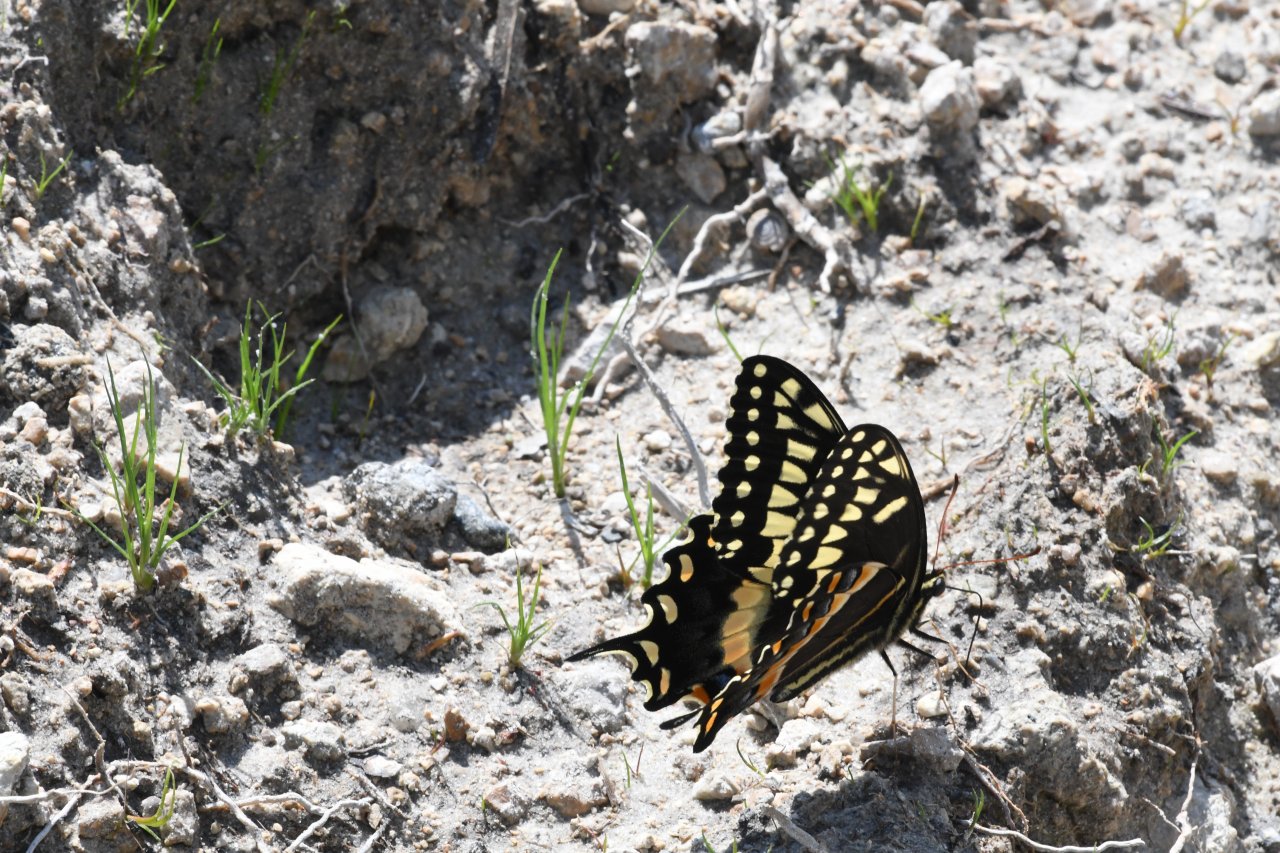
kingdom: Animalia
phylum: Arthropoda
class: Insecta
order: Lepidoptera
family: Papilionidae
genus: Pterourus
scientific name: Pterourus palamedes
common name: Palamedes Swallowtail
